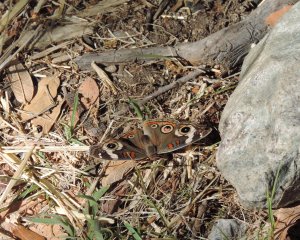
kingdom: Animalia
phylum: Arthropoda
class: Insecta
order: Lepidoptera
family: Nymphalidae
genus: Junonia
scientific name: Junonia coenia
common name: Common Buckeye
